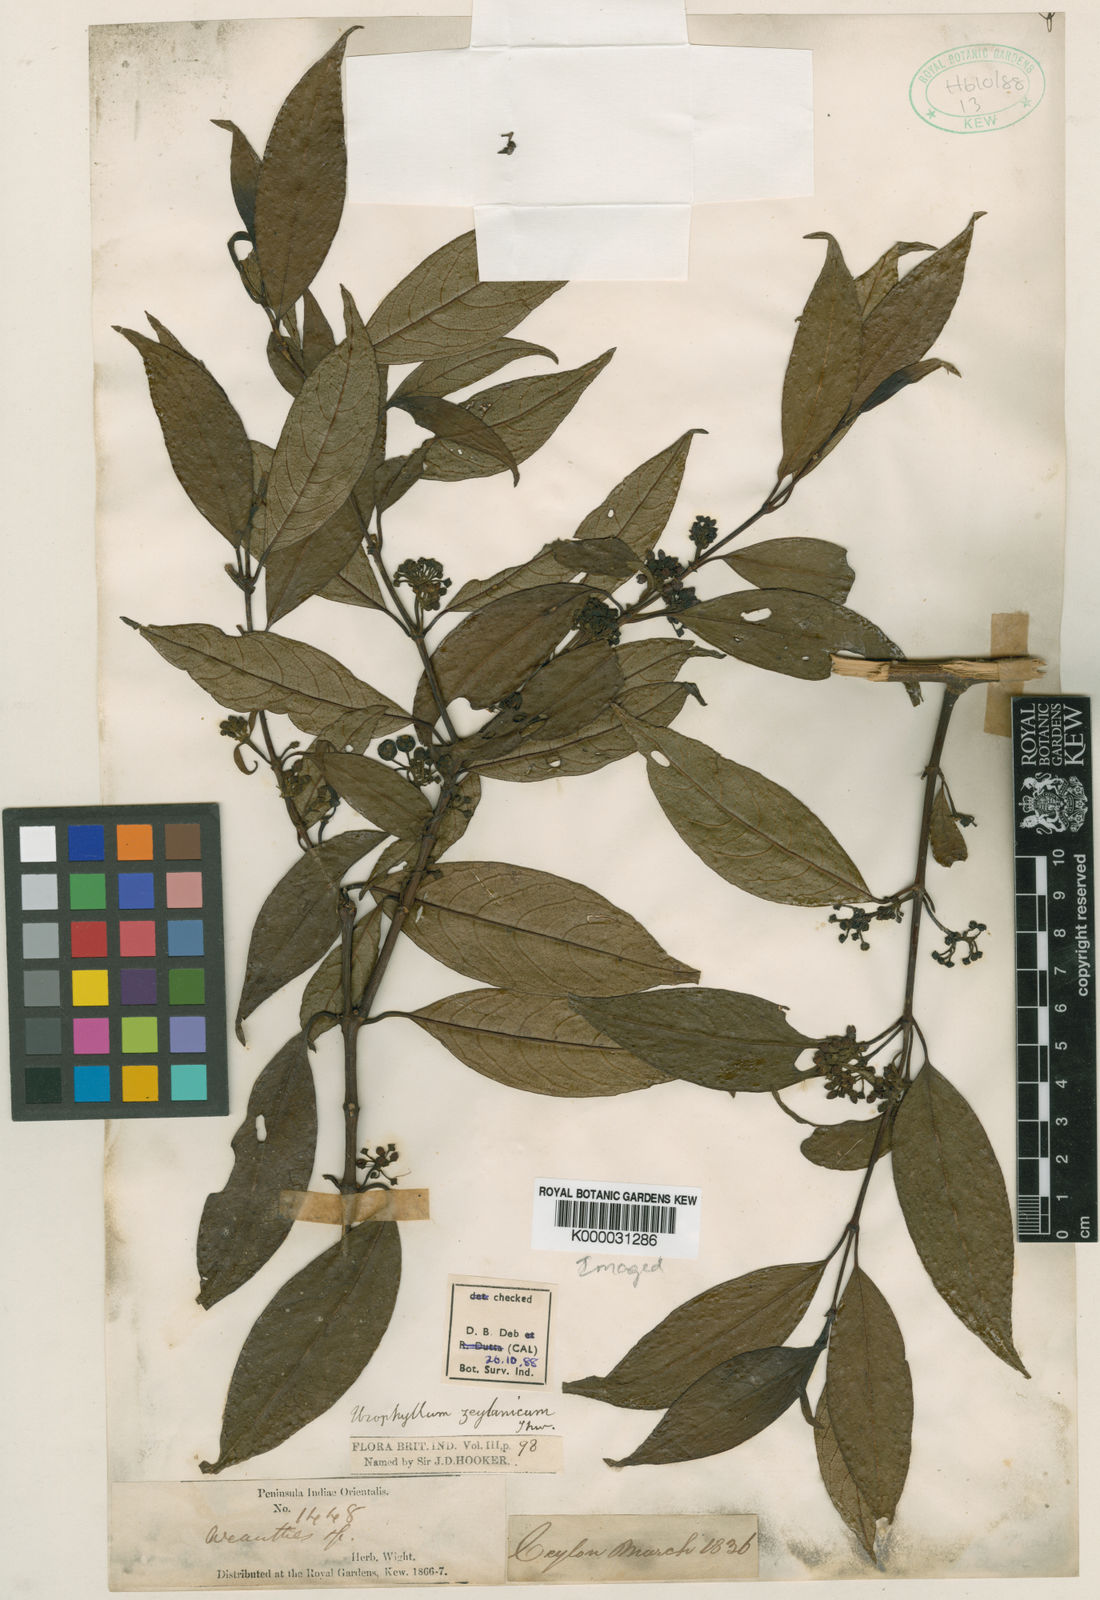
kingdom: Plantae
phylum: Tracheophyta
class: Magnoliopsida
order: Gentianales
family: Rubiaceae
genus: Urophyllum
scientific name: Urophyllum
